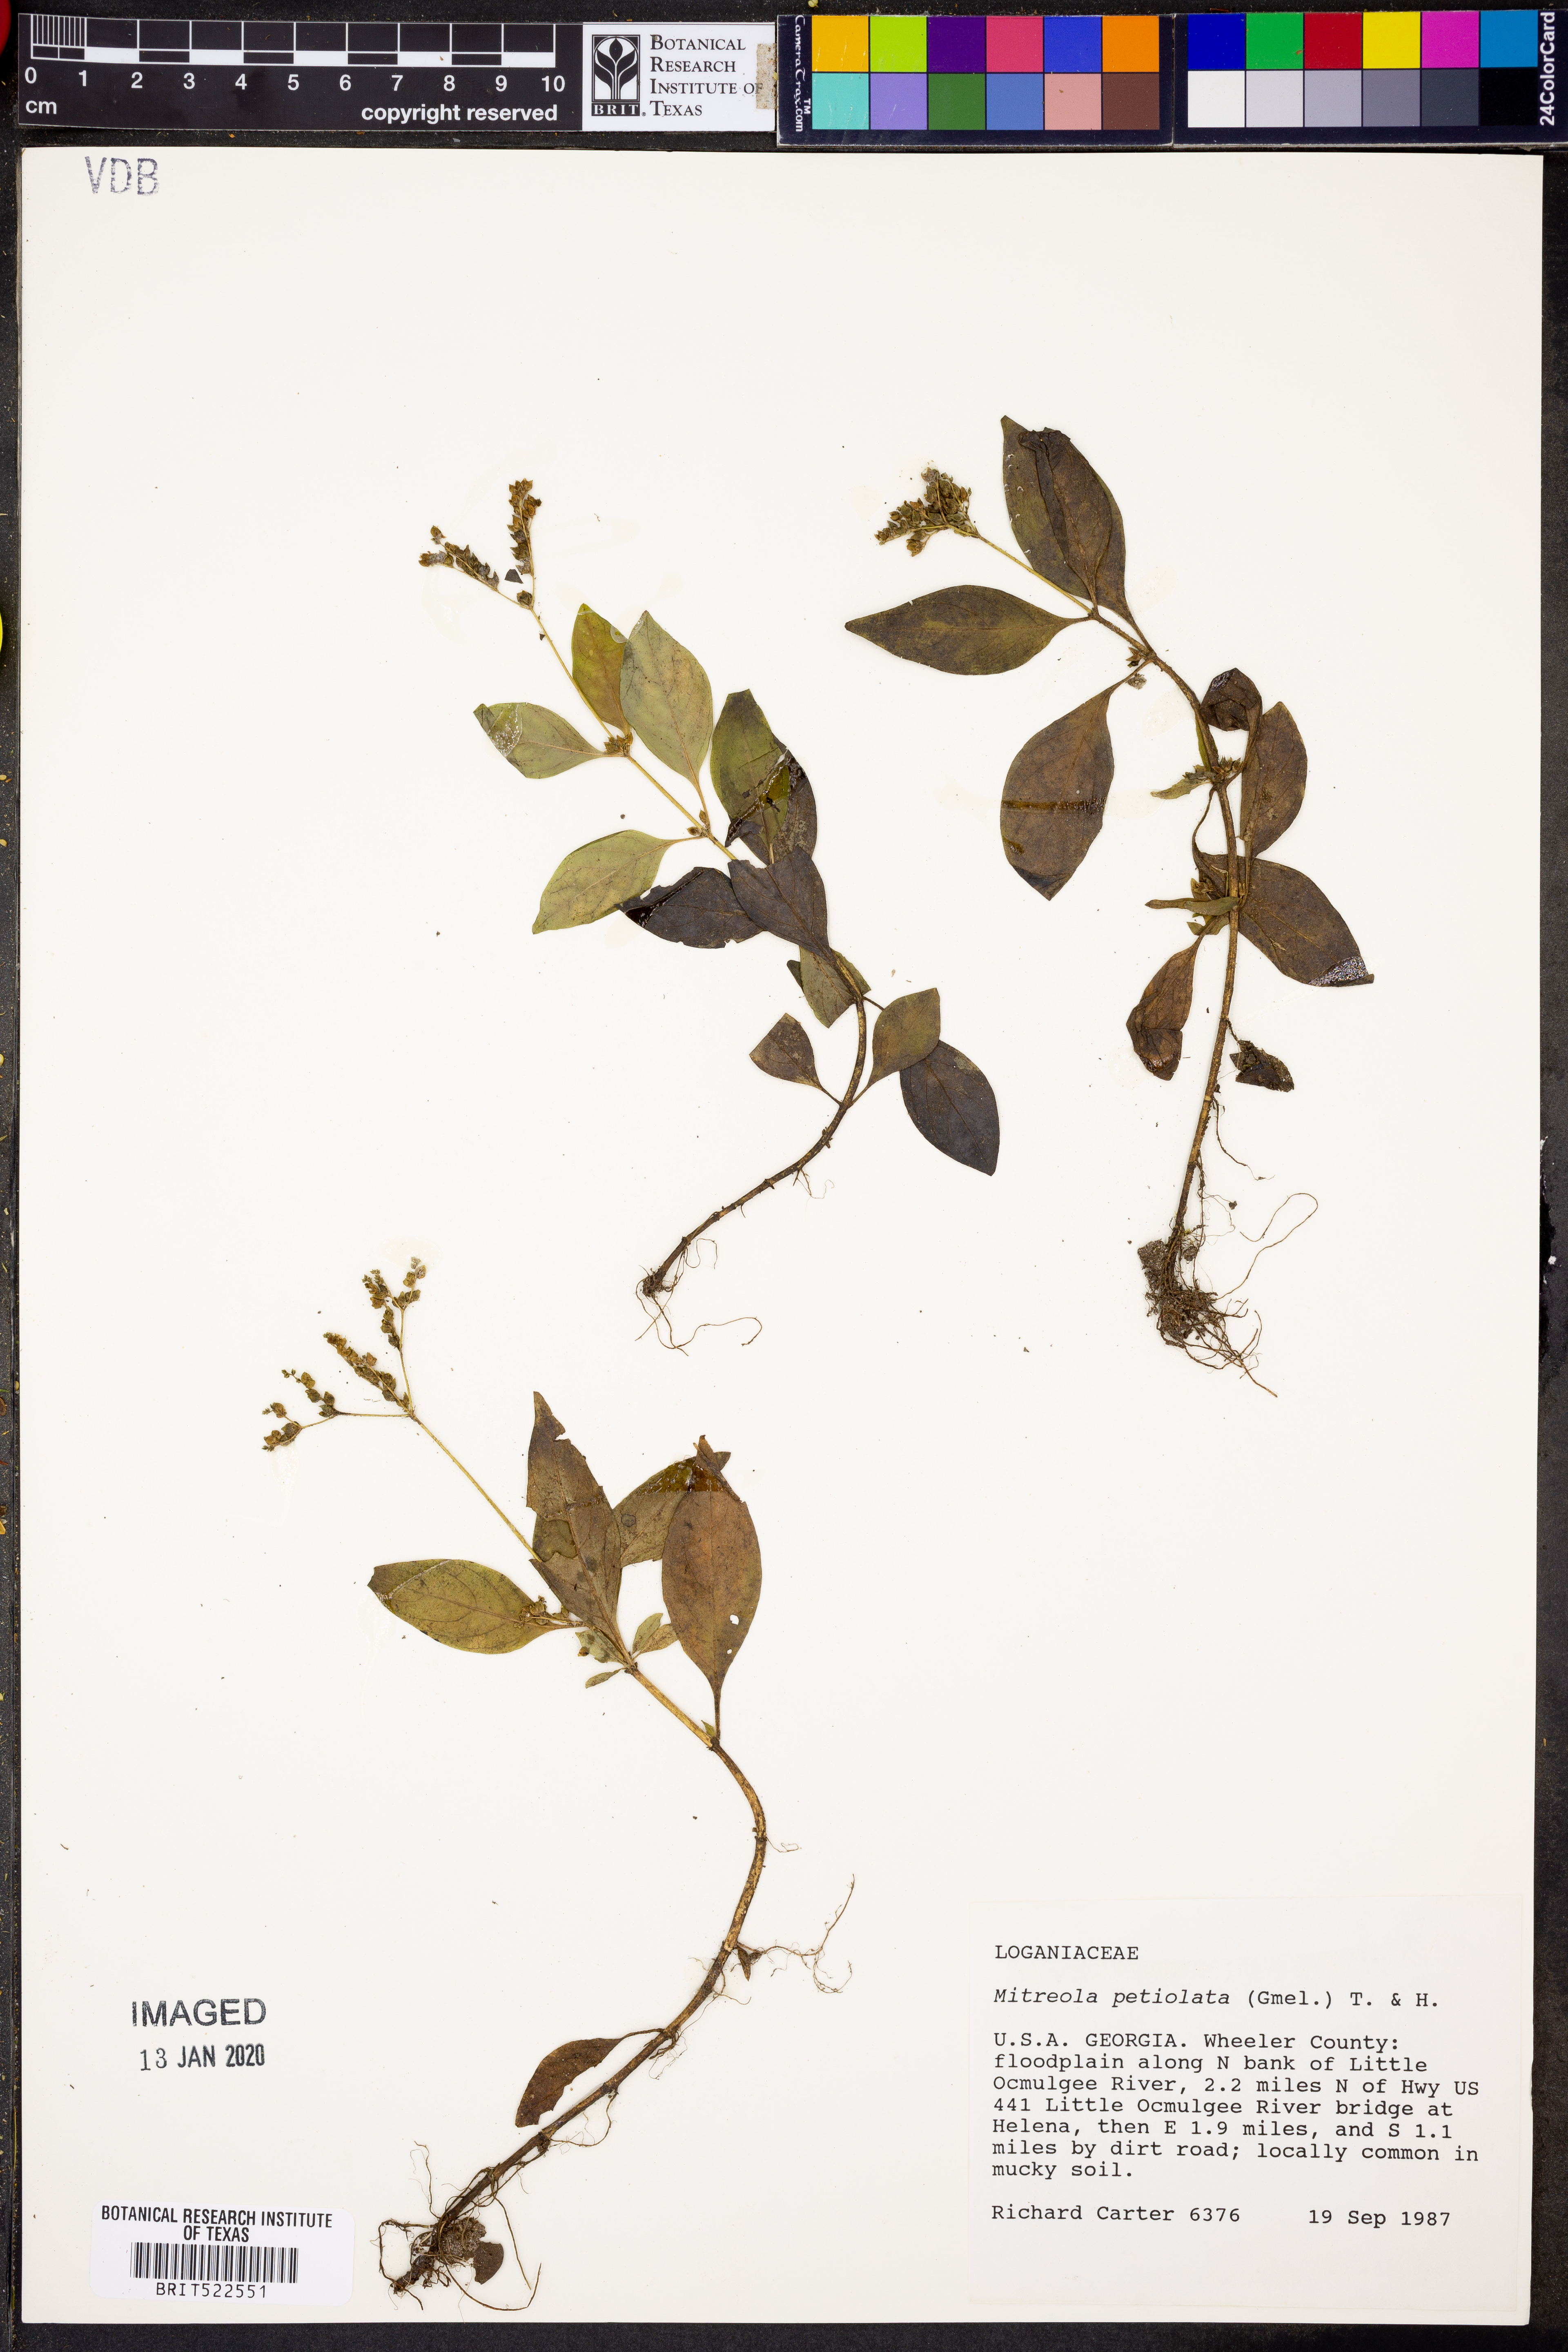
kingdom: Plantae
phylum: Tracheophyta
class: Magnoliopsida
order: Gentianales
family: Loganiaceae
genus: Mitreola
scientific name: Mitreola petiolata
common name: Lax hornpod
